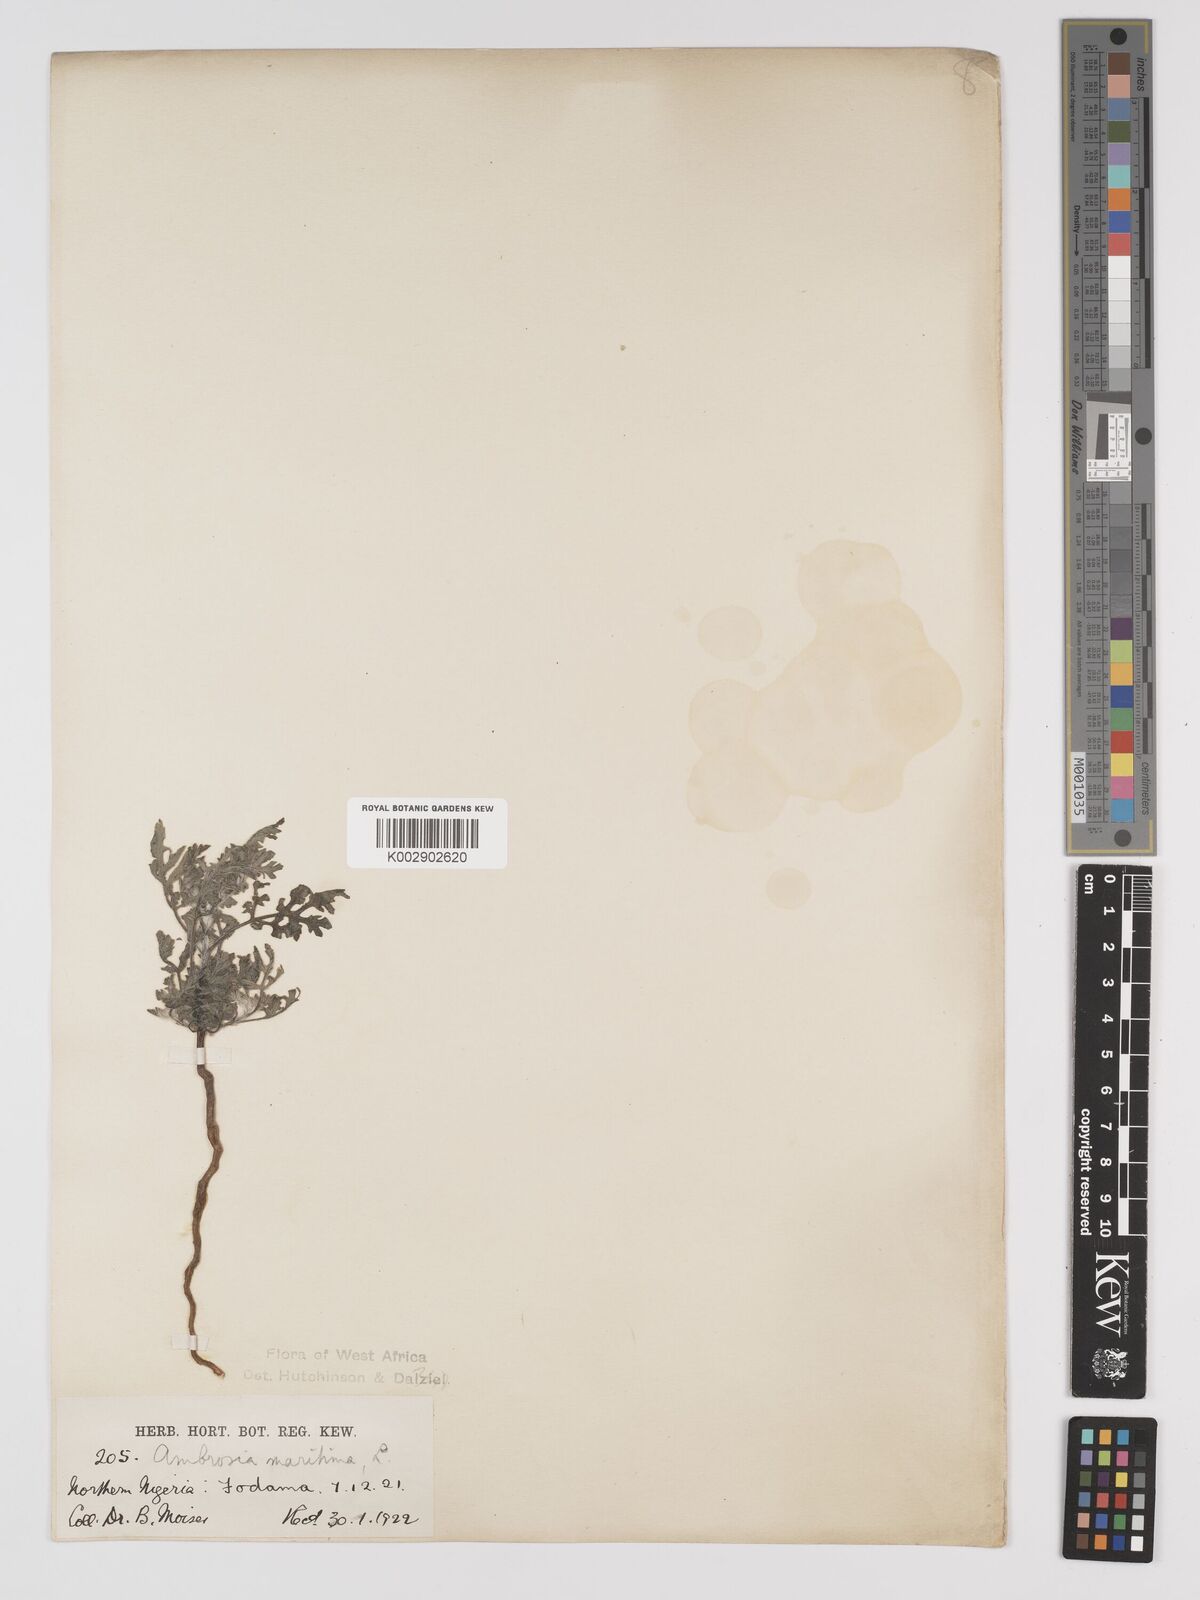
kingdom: Plantae
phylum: Tracheophyta
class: Magnoliopsida
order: Asterales
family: Asteraceae
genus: Ambrosia
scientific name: Ambrosia maritima
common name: Sea ambrosia
